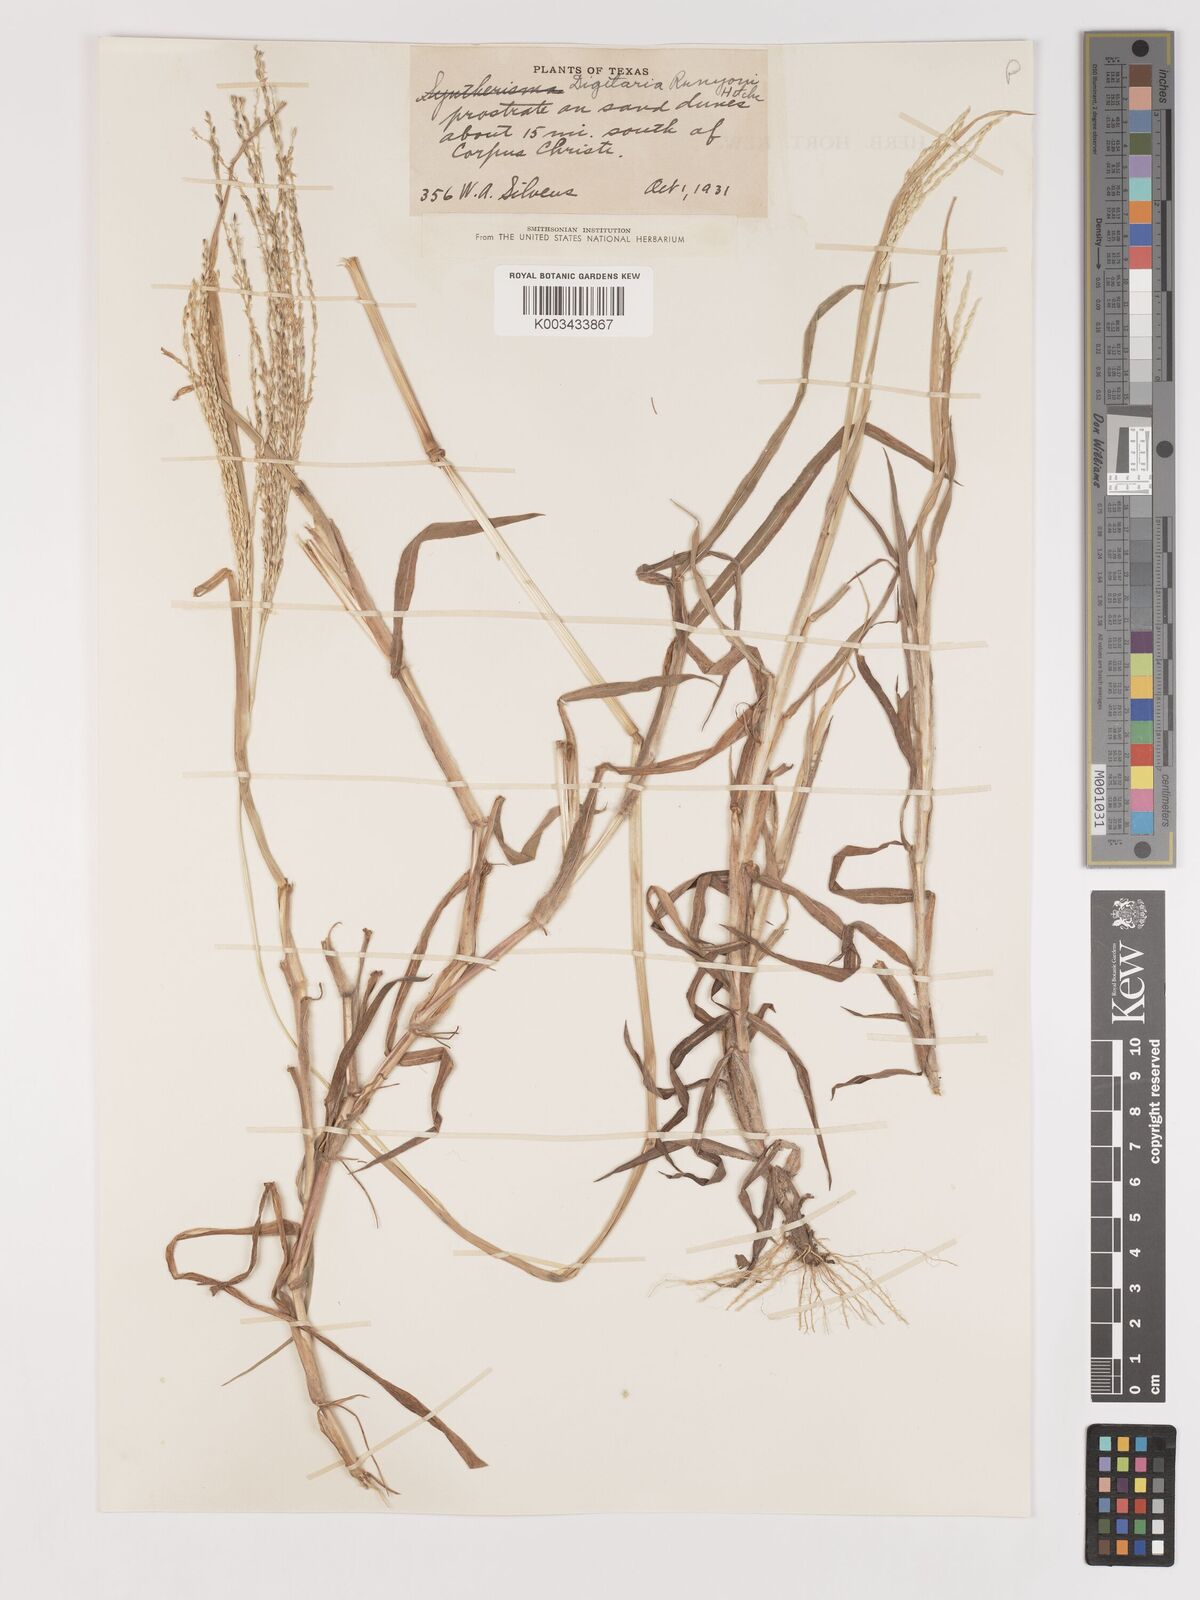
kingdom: Plantae
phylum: Tracheophyta
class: Liliopsida
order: Poales
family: Poaceae
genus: Digitaria
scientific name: Digitaria texana
